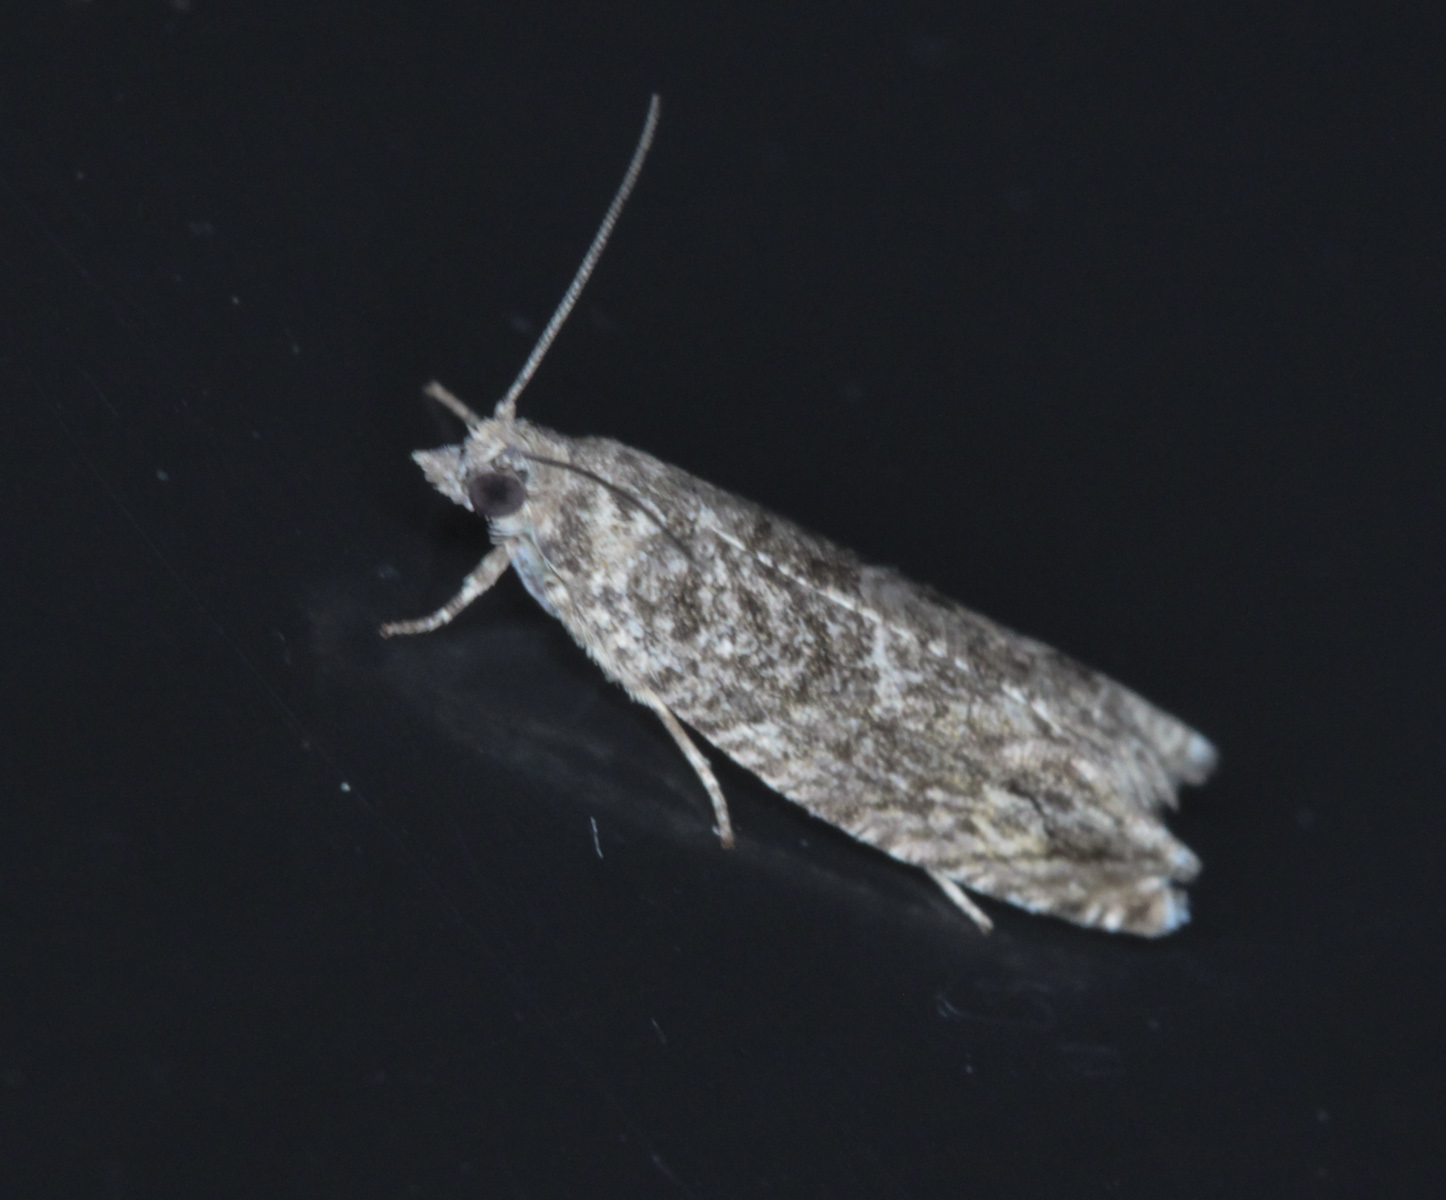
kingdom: Animalia
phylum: Arthropoda
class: Insecta
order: Lepidoptera
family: Tortricidae
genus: Epinotia
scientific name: Epinotia cinereana
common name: Grey aspen bell
